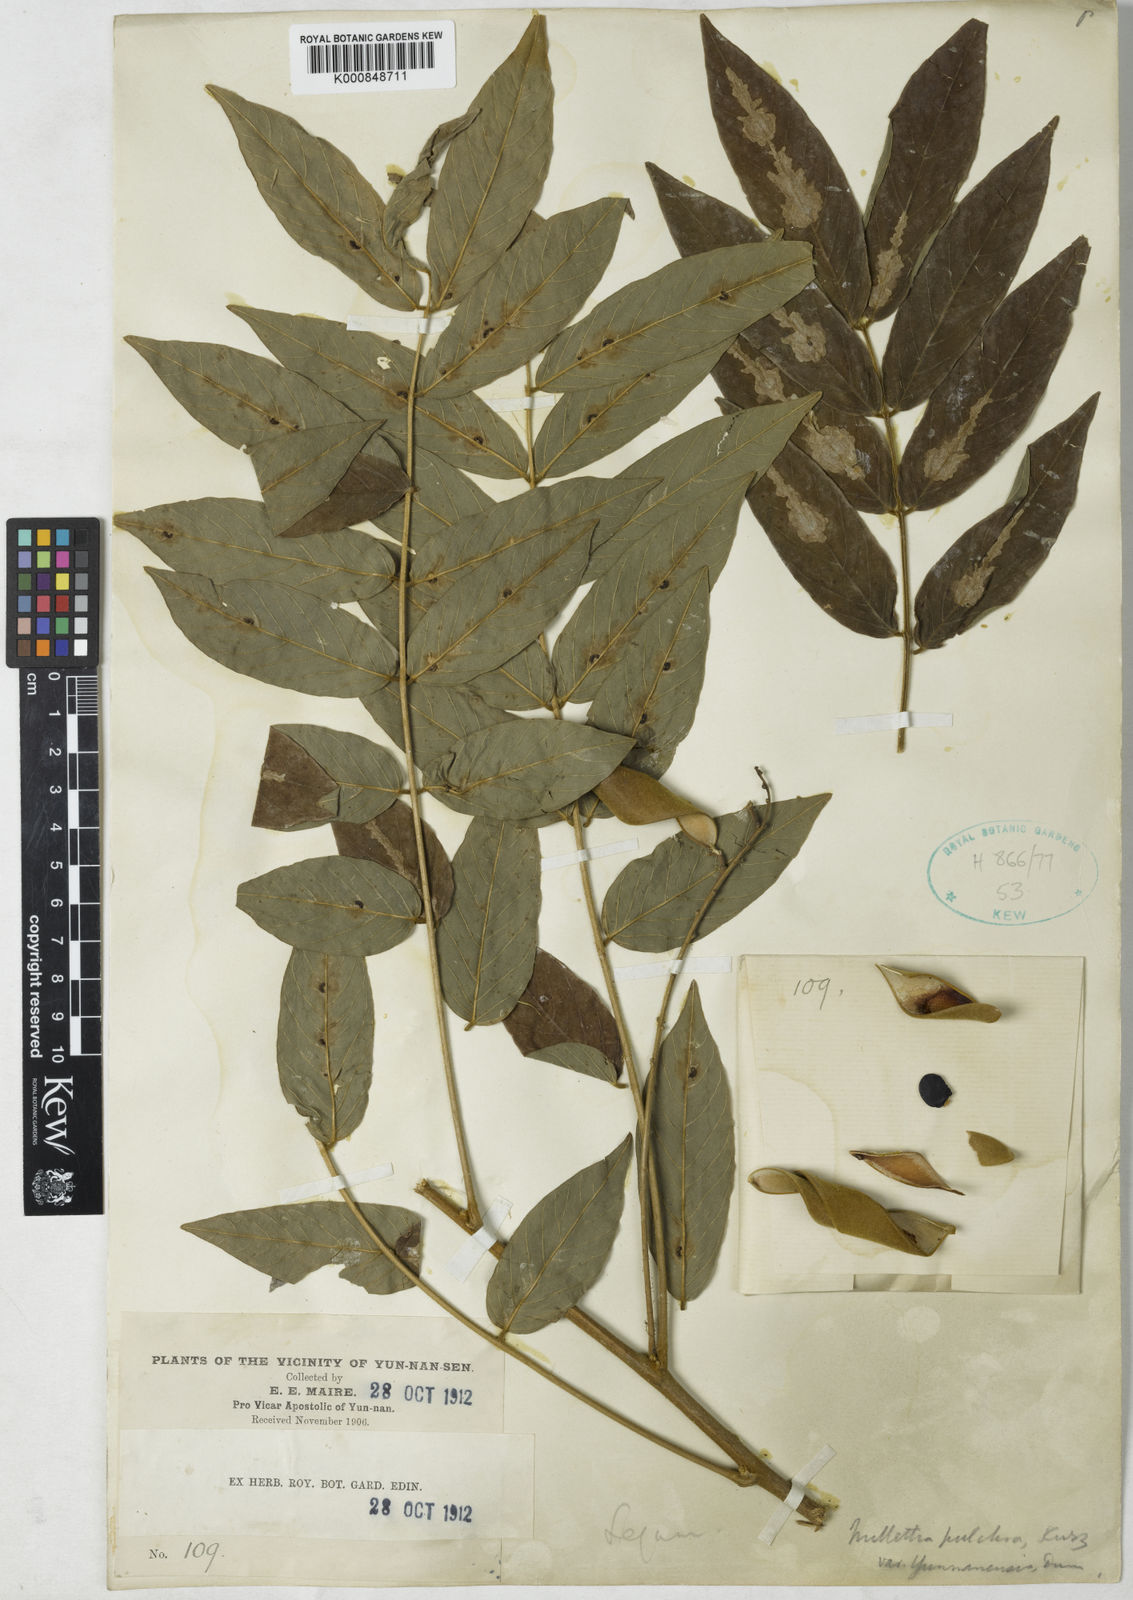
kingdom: Plantae
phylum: Tracheophyta
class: Magnoliopsida
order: Fabales
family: Fabaceae
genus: Millettia
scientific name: Millettia pulchra
